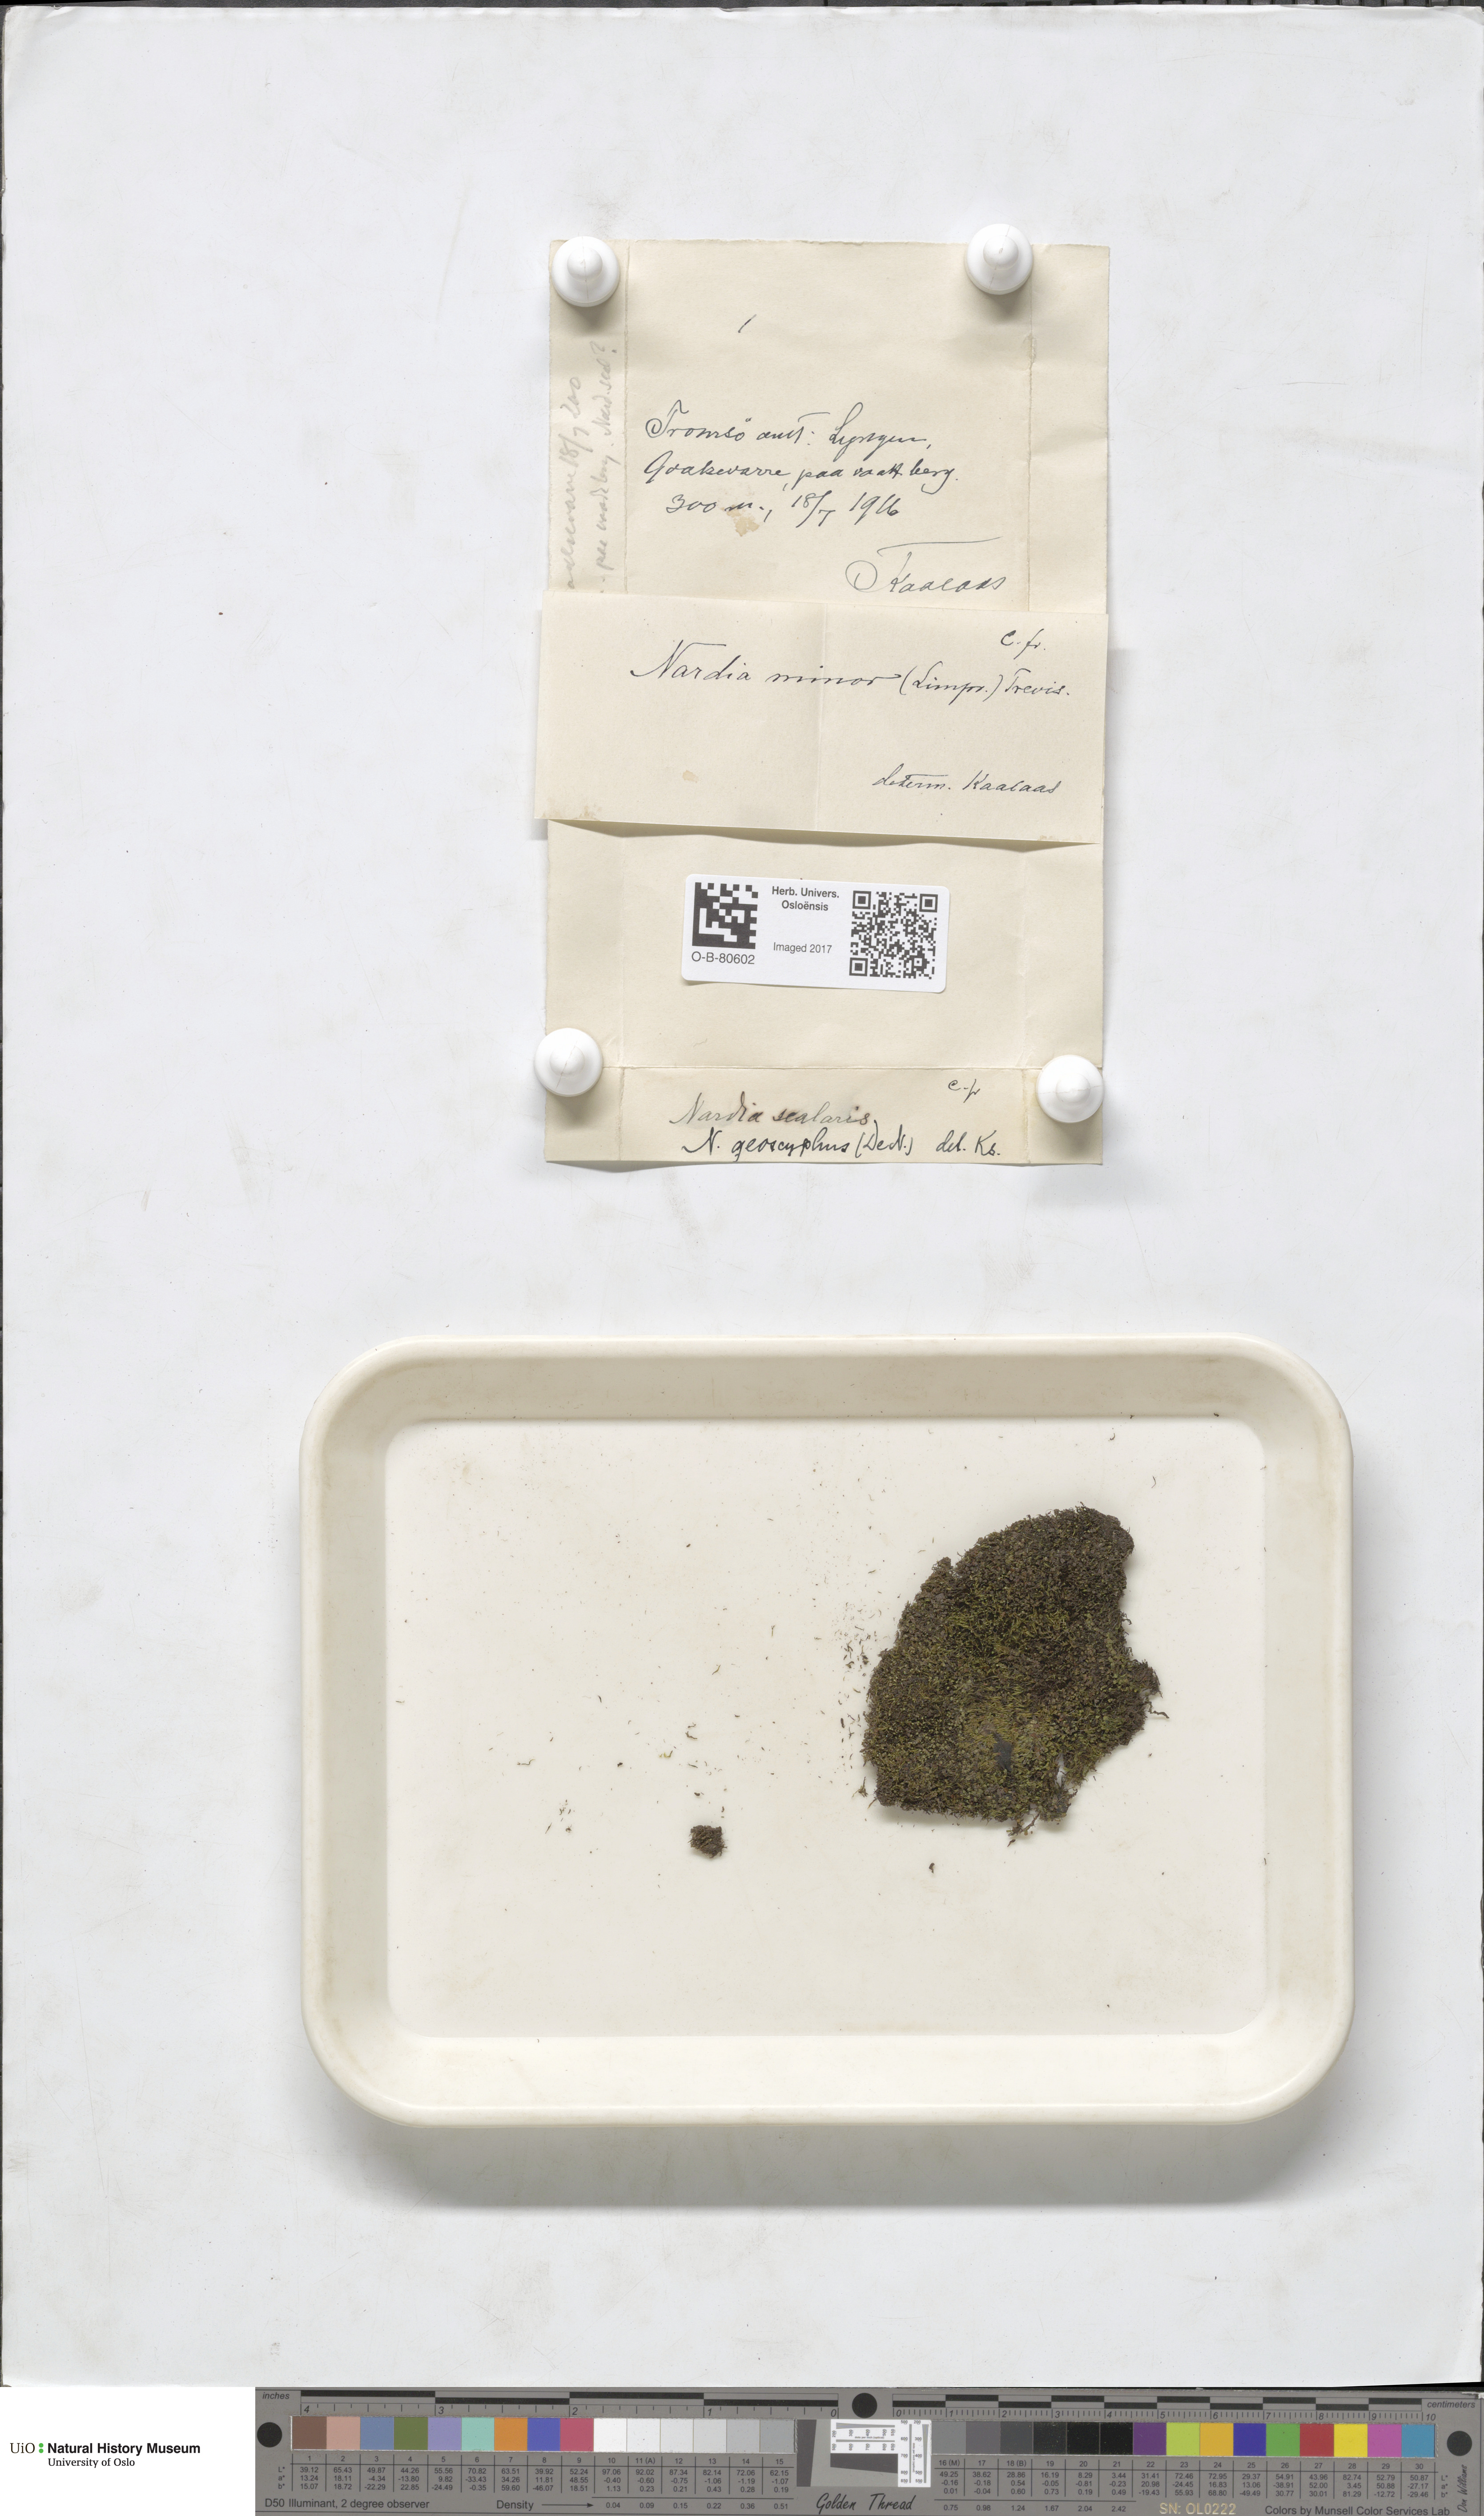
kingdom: Plantae
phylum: Marchantiophyta
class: Jungermanniopsida
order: Jungermanniales
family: Gymnomitriaceae
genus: Nardia
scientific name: Nardia geoscyphus
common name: Earth-cup flapwort
